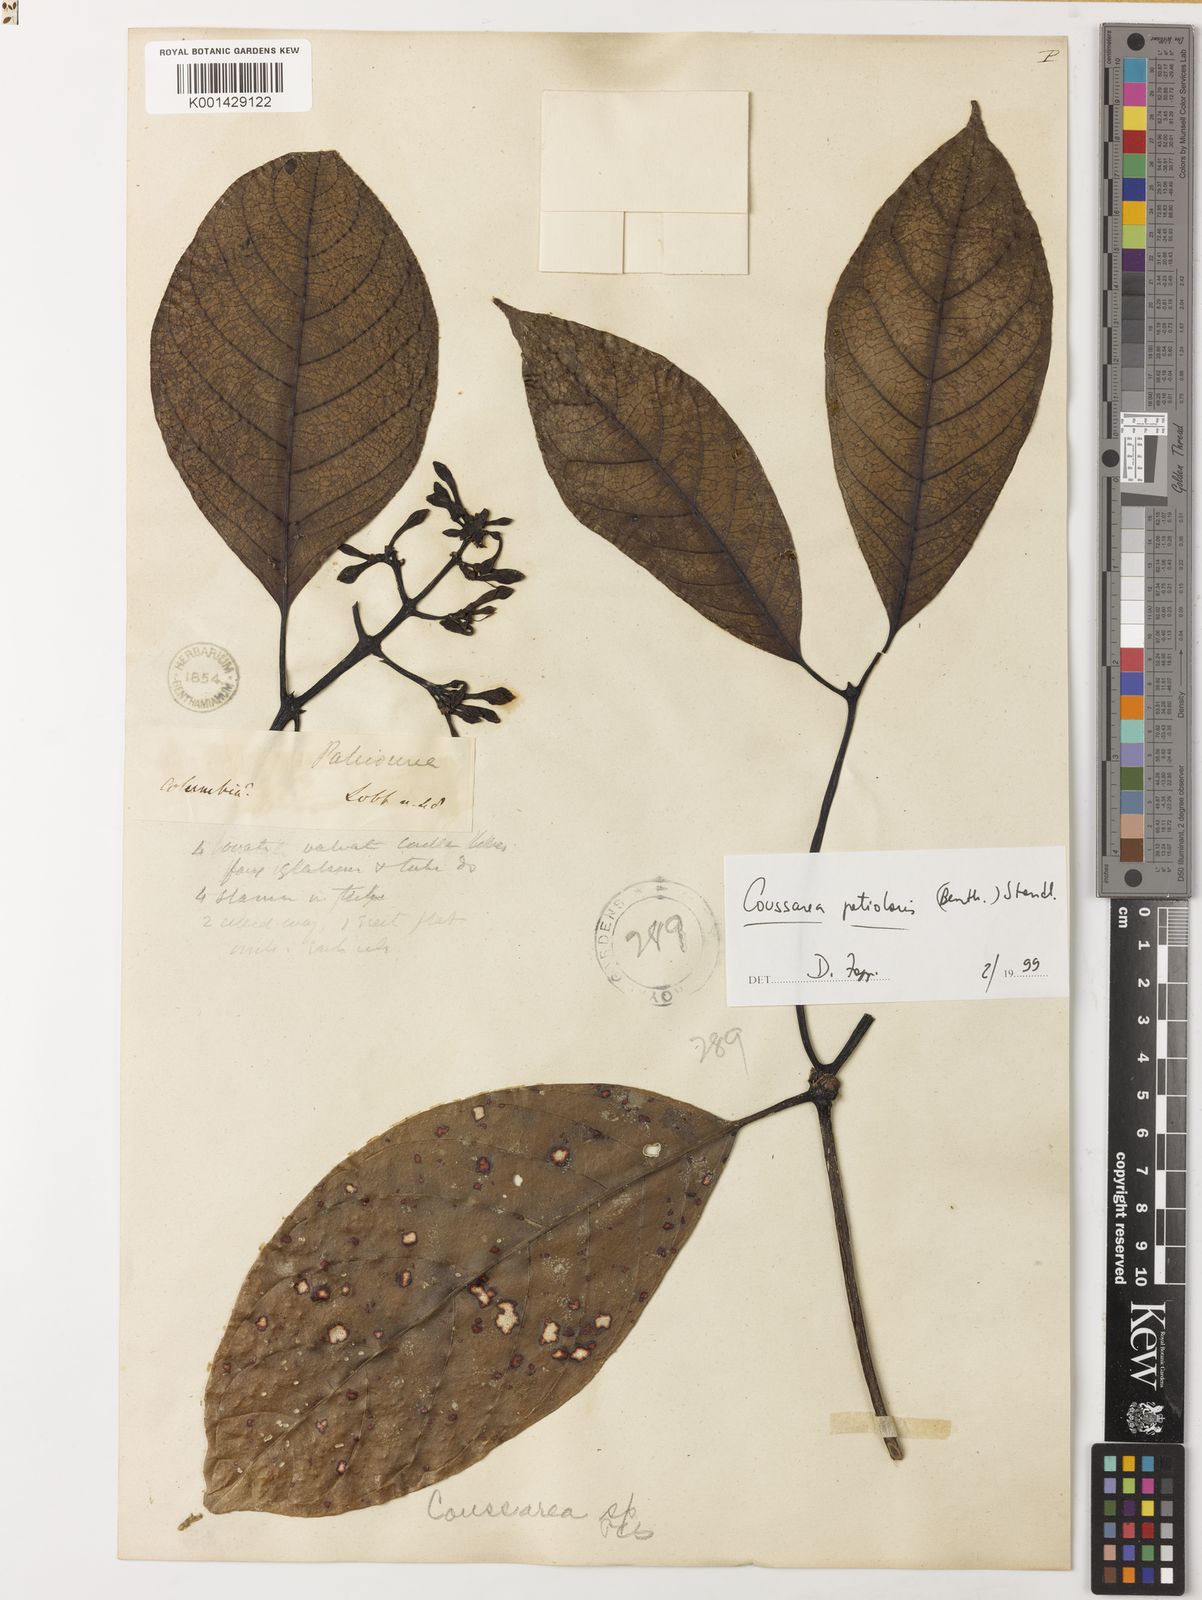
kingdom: Plantae
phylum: Tracheophyta
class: Magnoliopsida
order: Gentianales
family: Rubiaceae
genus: Coussarea
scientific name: Coussarea petiolaris
